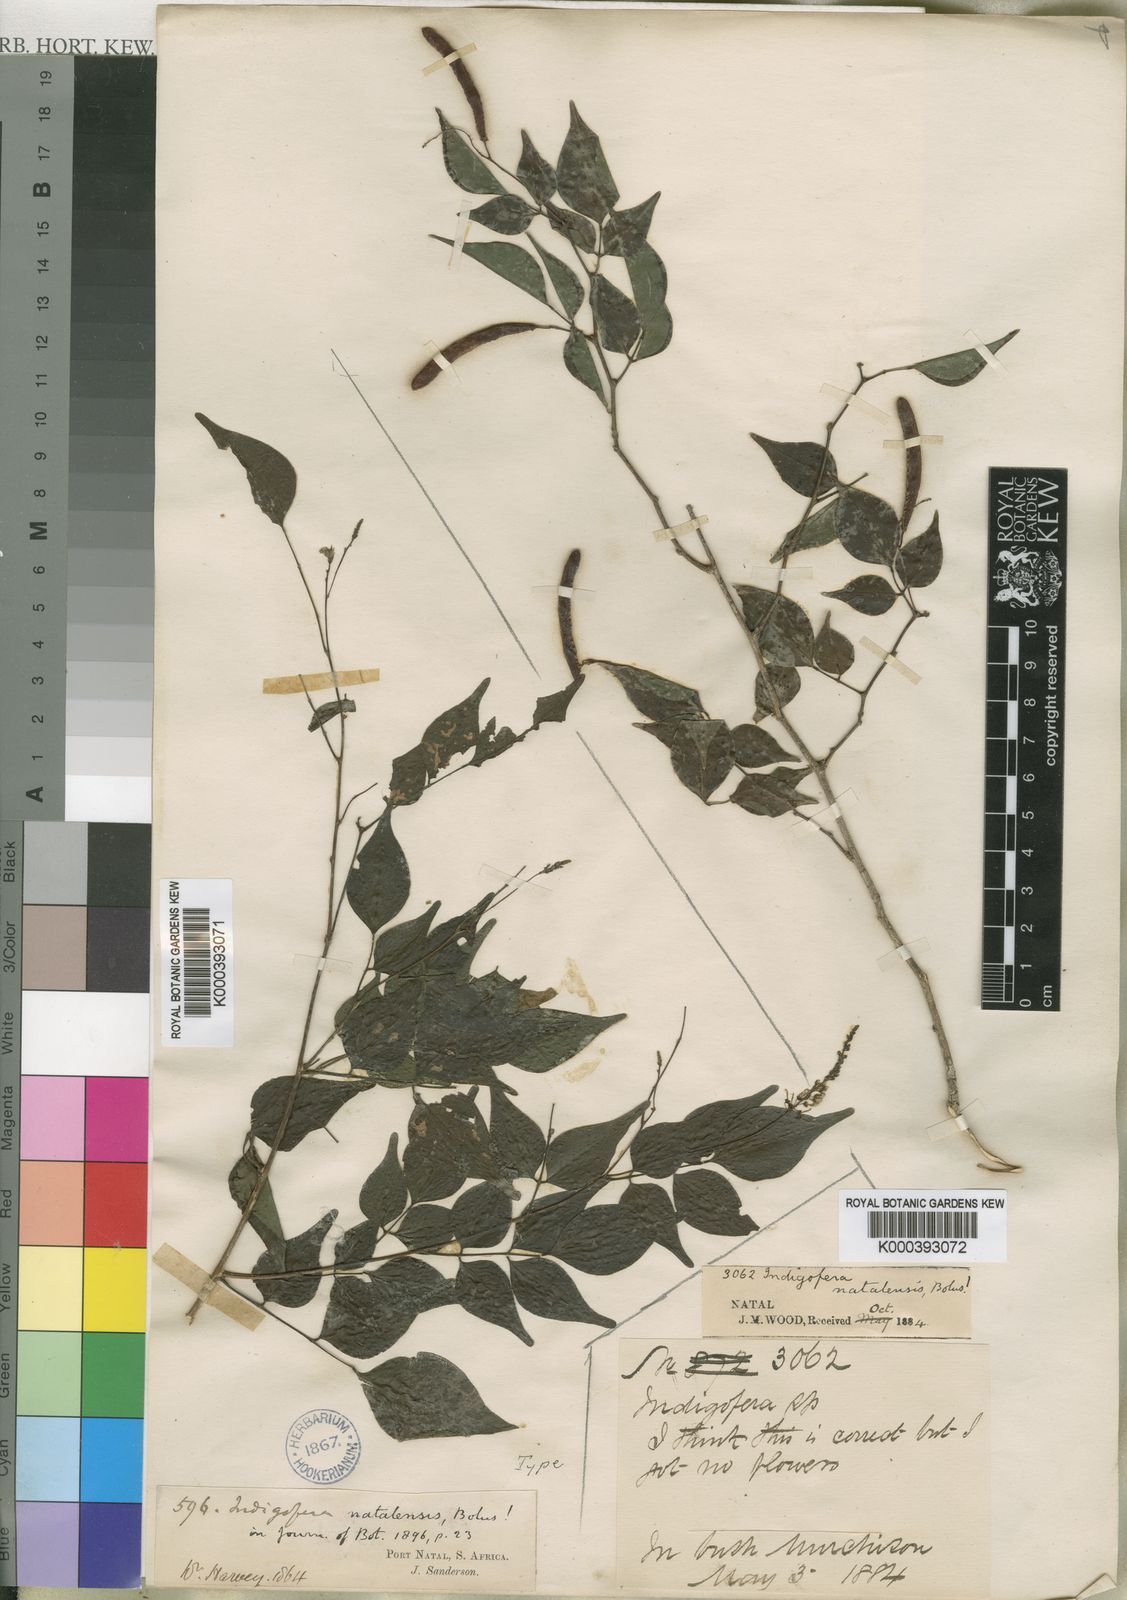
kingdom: Plantae
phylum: Tracheophyta
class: Magnoliopsida
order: Fabales
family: Fabaceae
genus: Indigofera
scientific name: Indigofera natalensis
